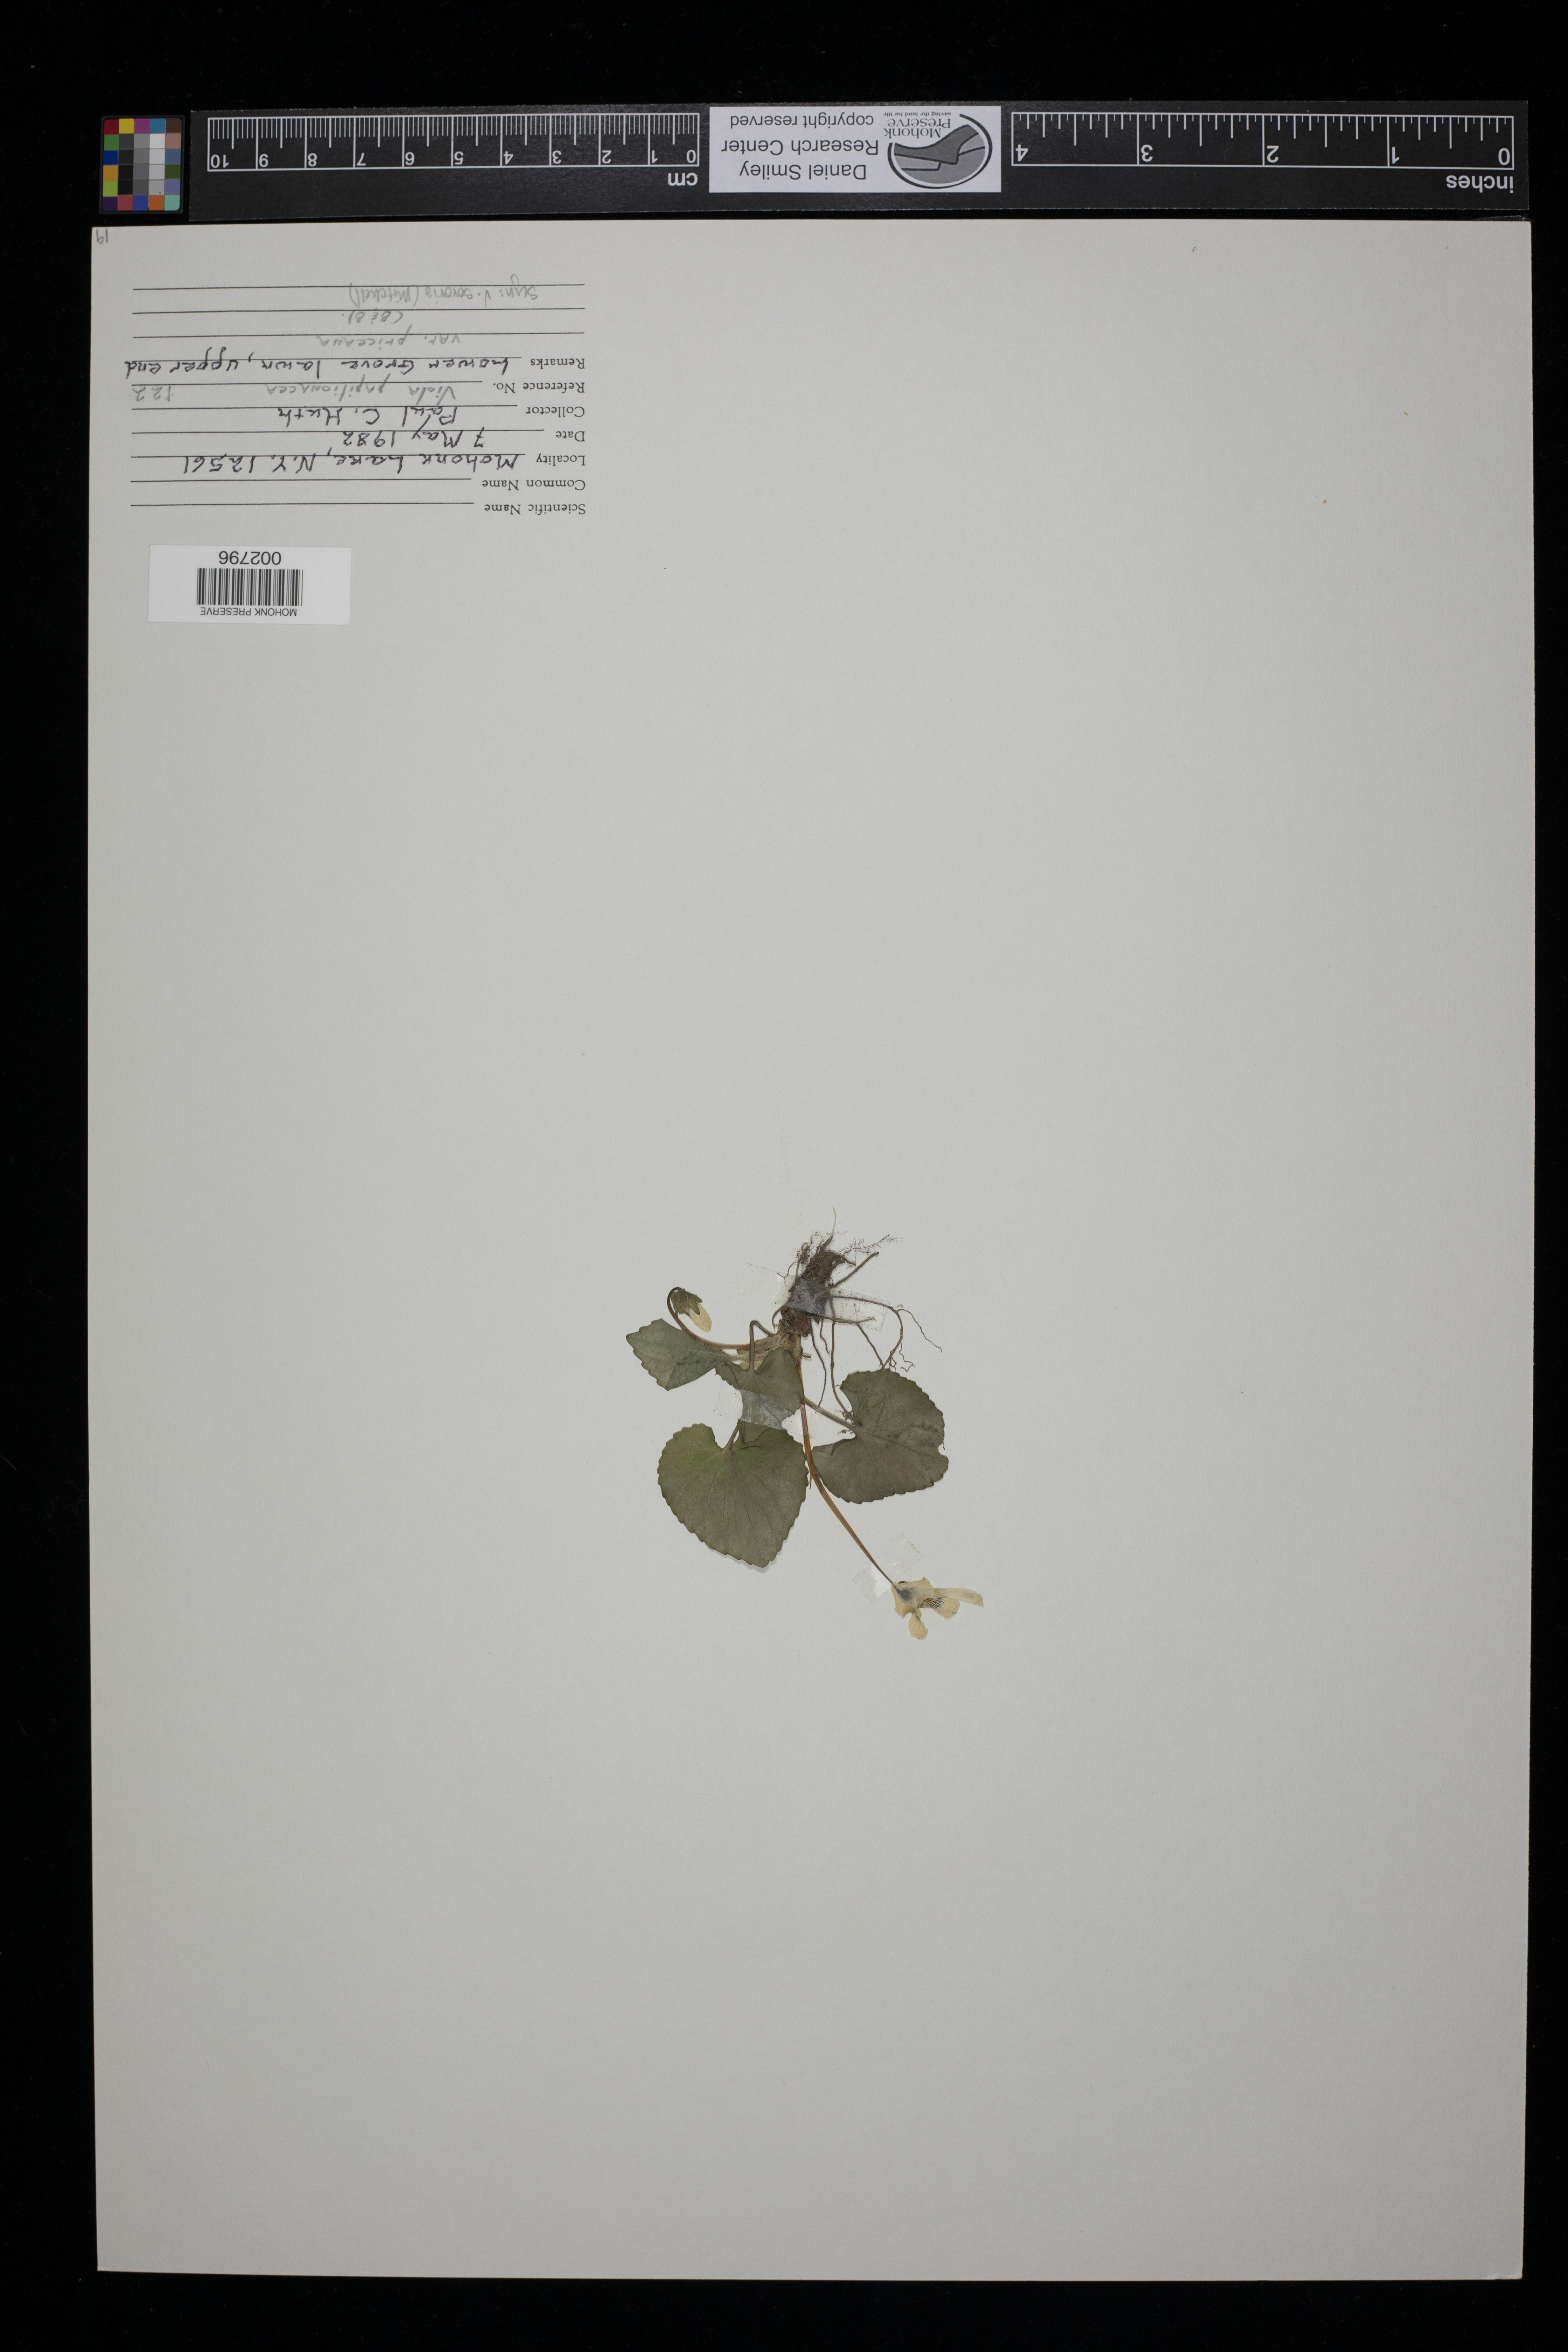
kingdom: Plantae
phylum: Tracheophyta
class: Magnoliopsida
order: Malpighiales
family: Violaceae
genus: Viola
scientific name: Viola sororia
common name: Dooryard violet
